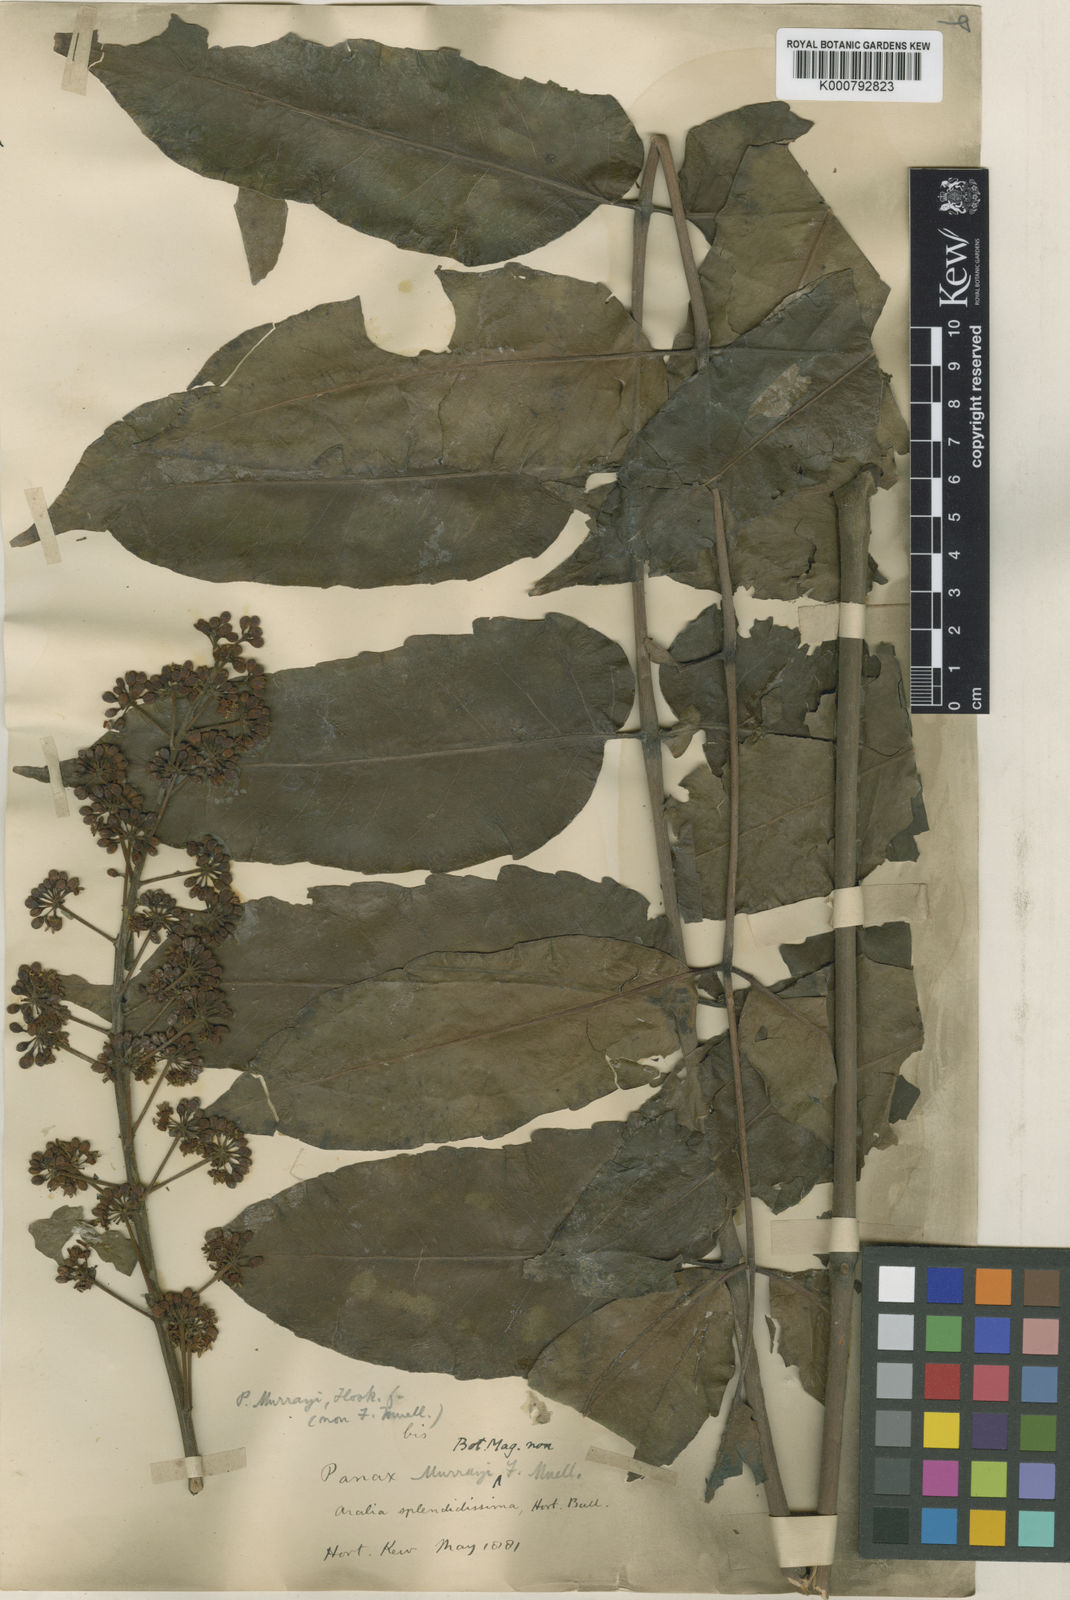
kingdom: Plantae
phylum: Tracheophyta
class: Magnoliopsida
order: Apiales
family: Araliaceae
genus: Polyscias
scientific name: Polyscias crenata
